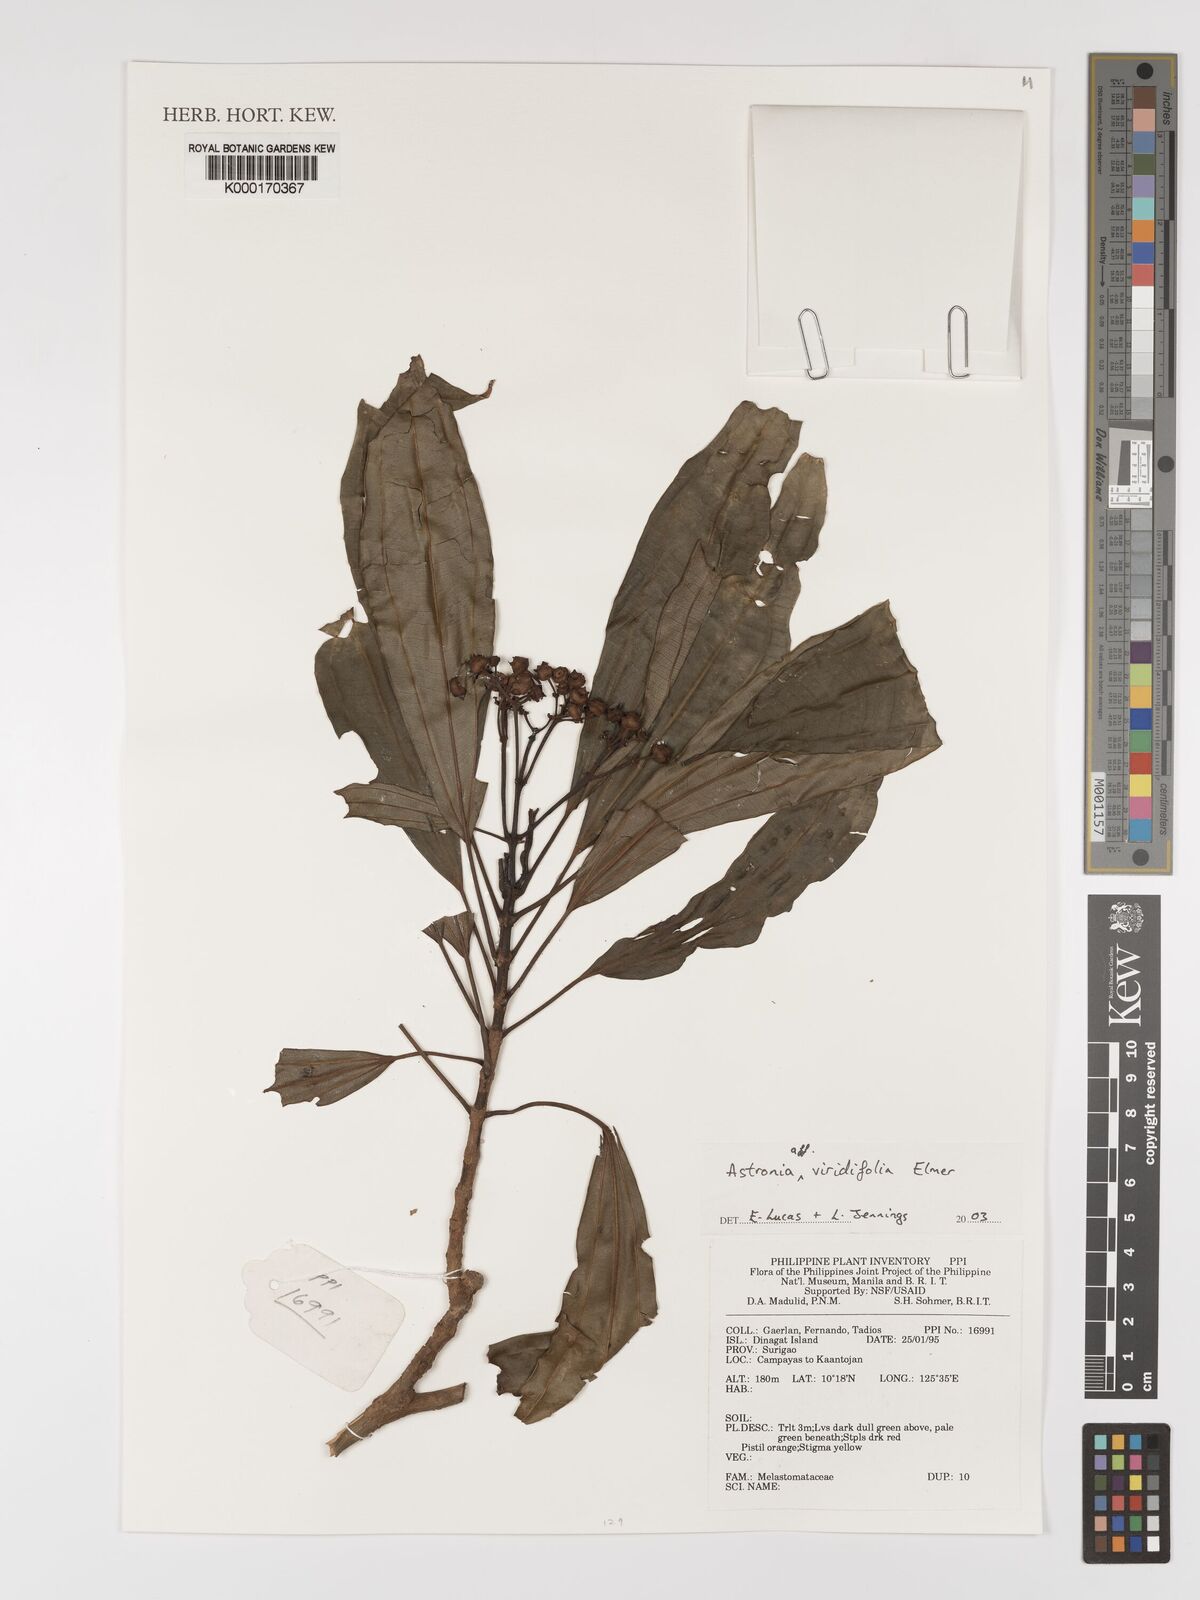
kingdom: Plantae
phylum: Tracheophyta
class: Magnoliopsida
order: Myrtales
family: Melastomataceae
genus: Astronia
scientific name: Astronia viridifolia
